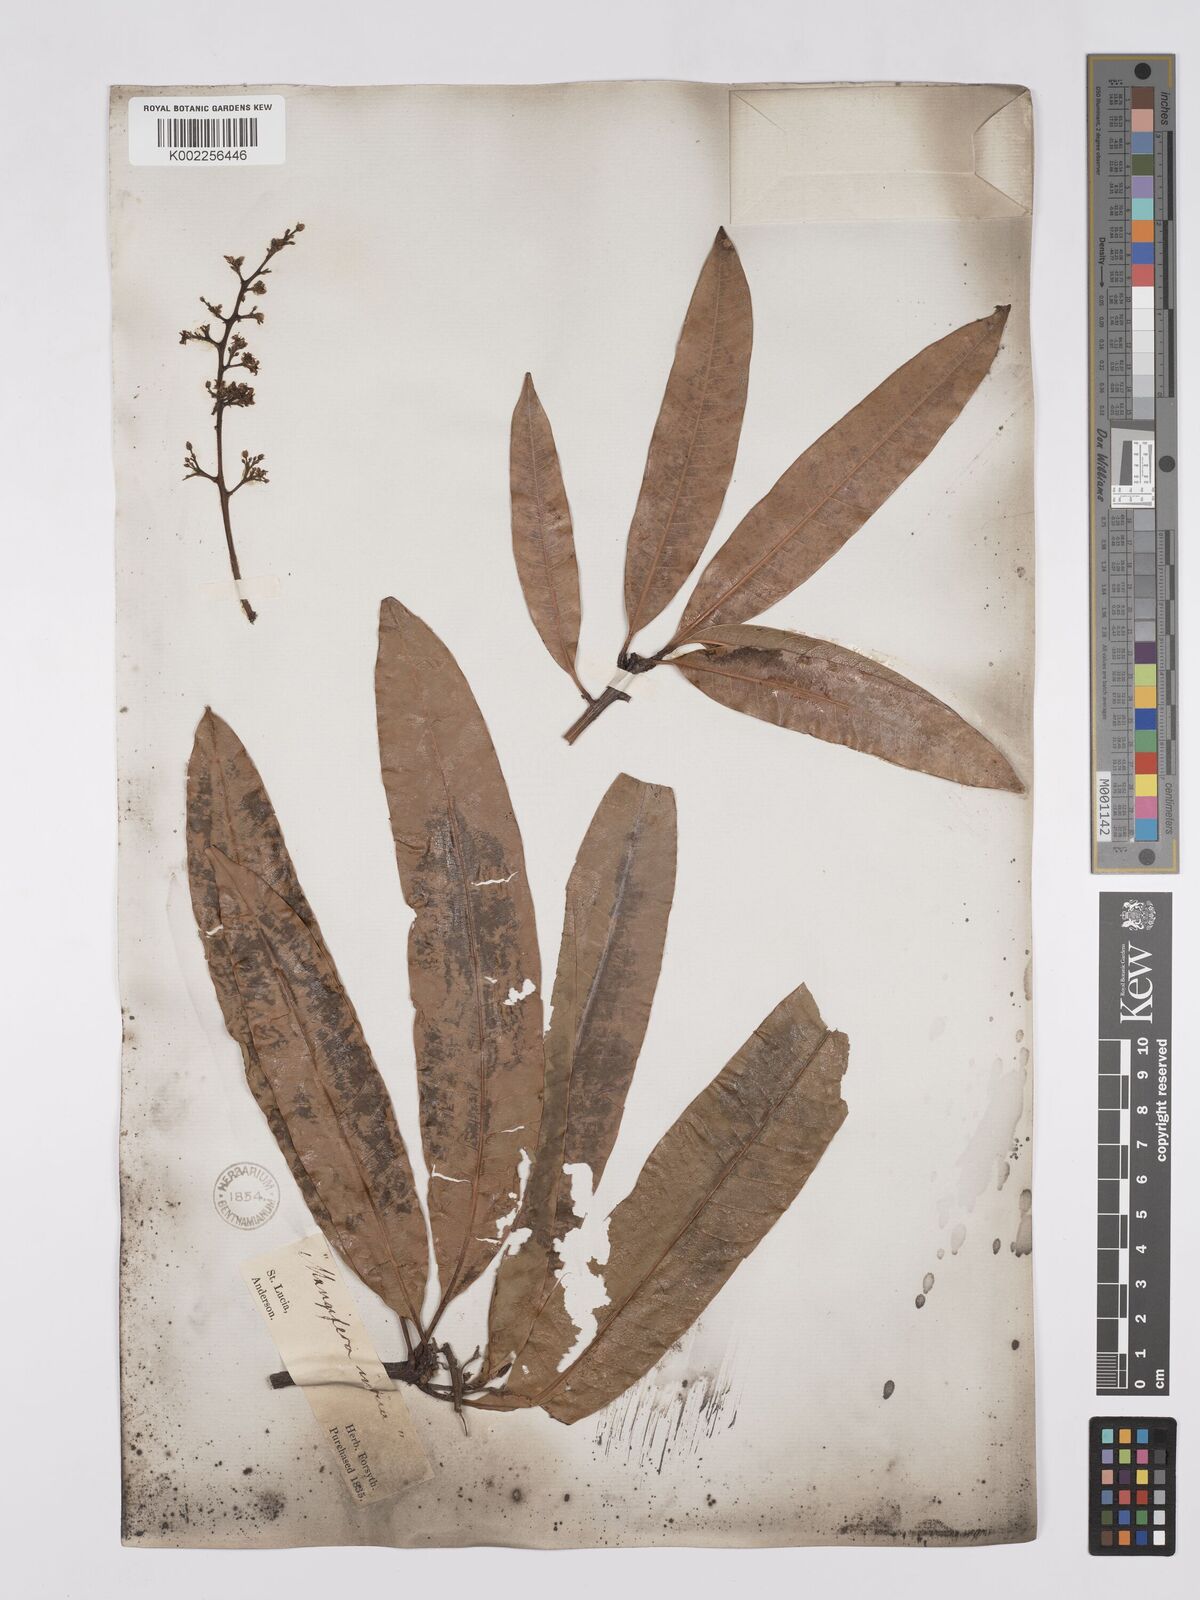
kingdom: Plantae
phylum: Tracheophyta
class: Magnoliopsida
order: Sapindales
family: Anacardiaceae
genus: Mangifera
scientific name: Mangifera indica
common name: Mango
